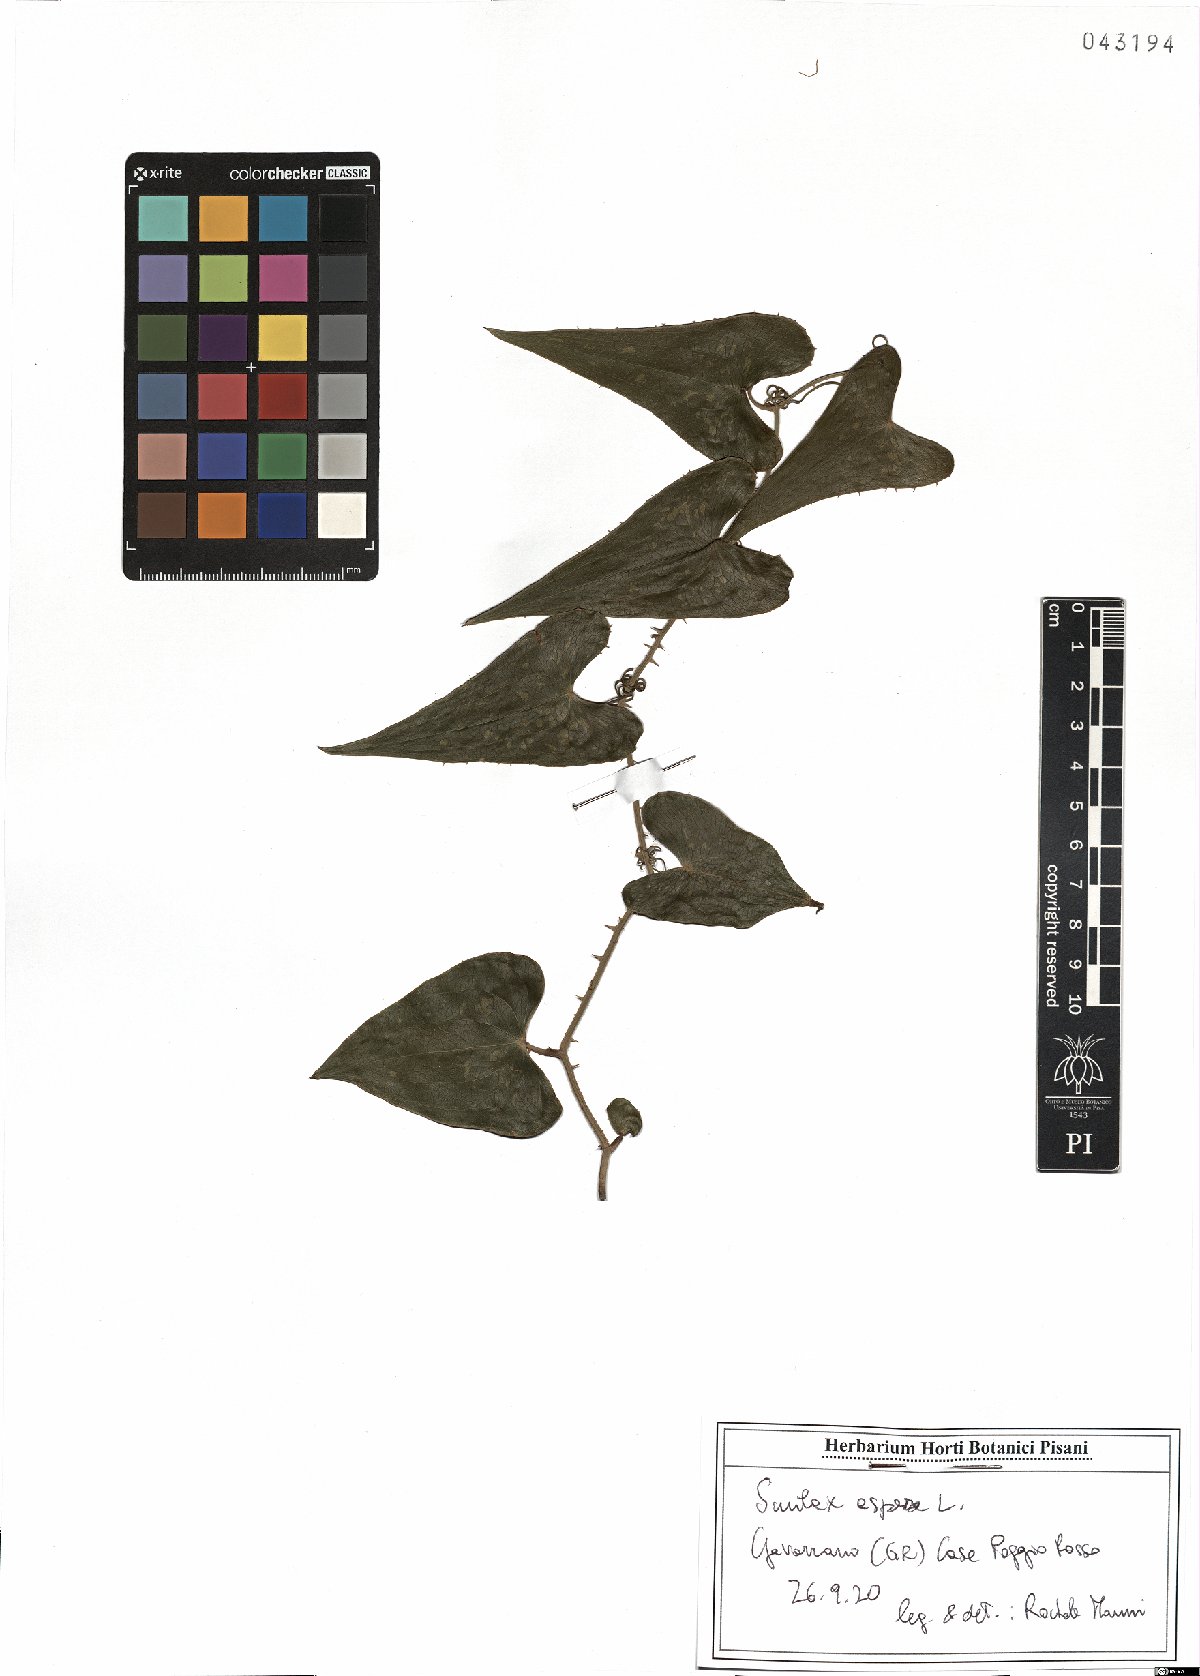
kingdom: Plantae
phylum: Tracheophyta
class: Liliopsida
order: Liliales
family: Smilacaceae
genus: Smilax
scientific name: Smilax aspera
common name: Common smilax
